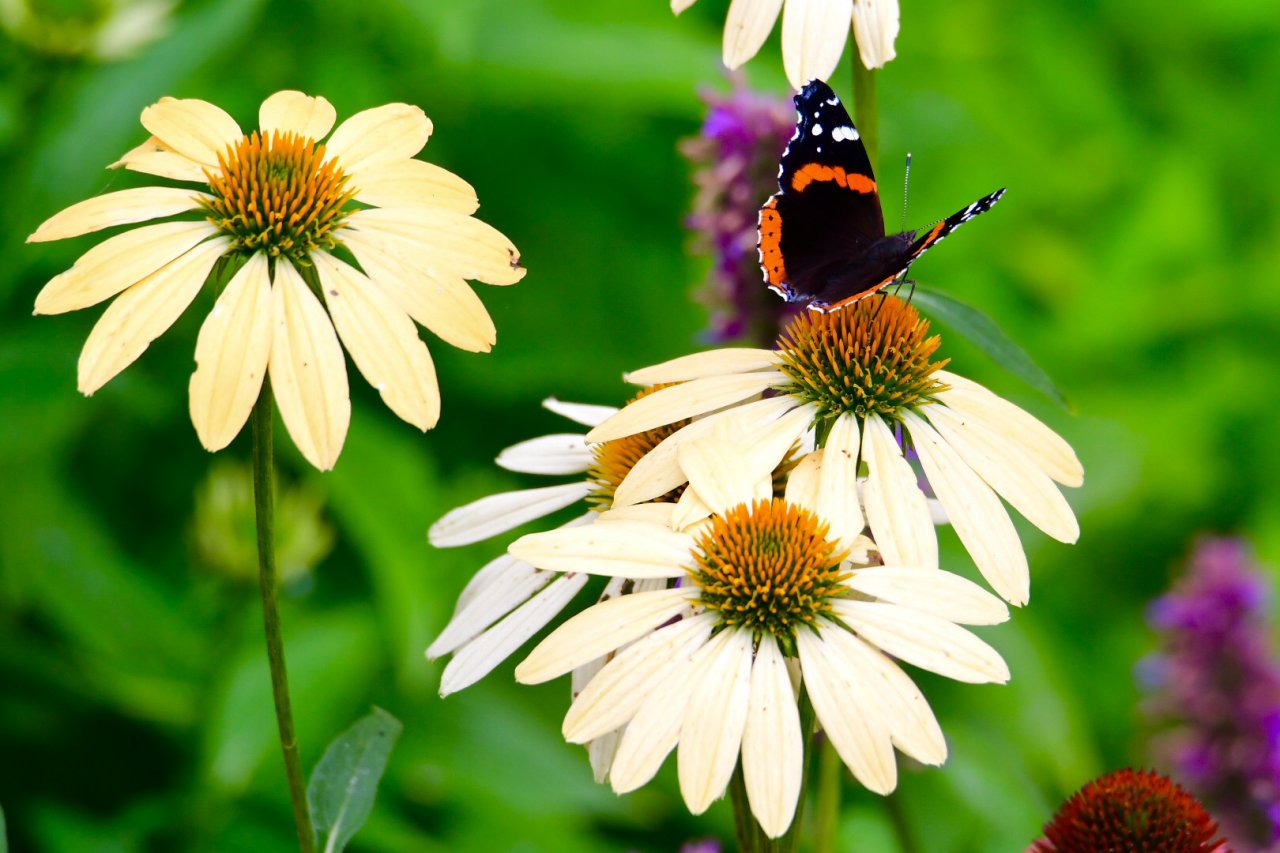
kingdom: Animalia
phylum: Arthropoda
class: Insecta
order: Lepidoptera
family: Nymphalidae
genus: Vanessa
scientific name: Vanessa atalanta
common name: Red Admiral
